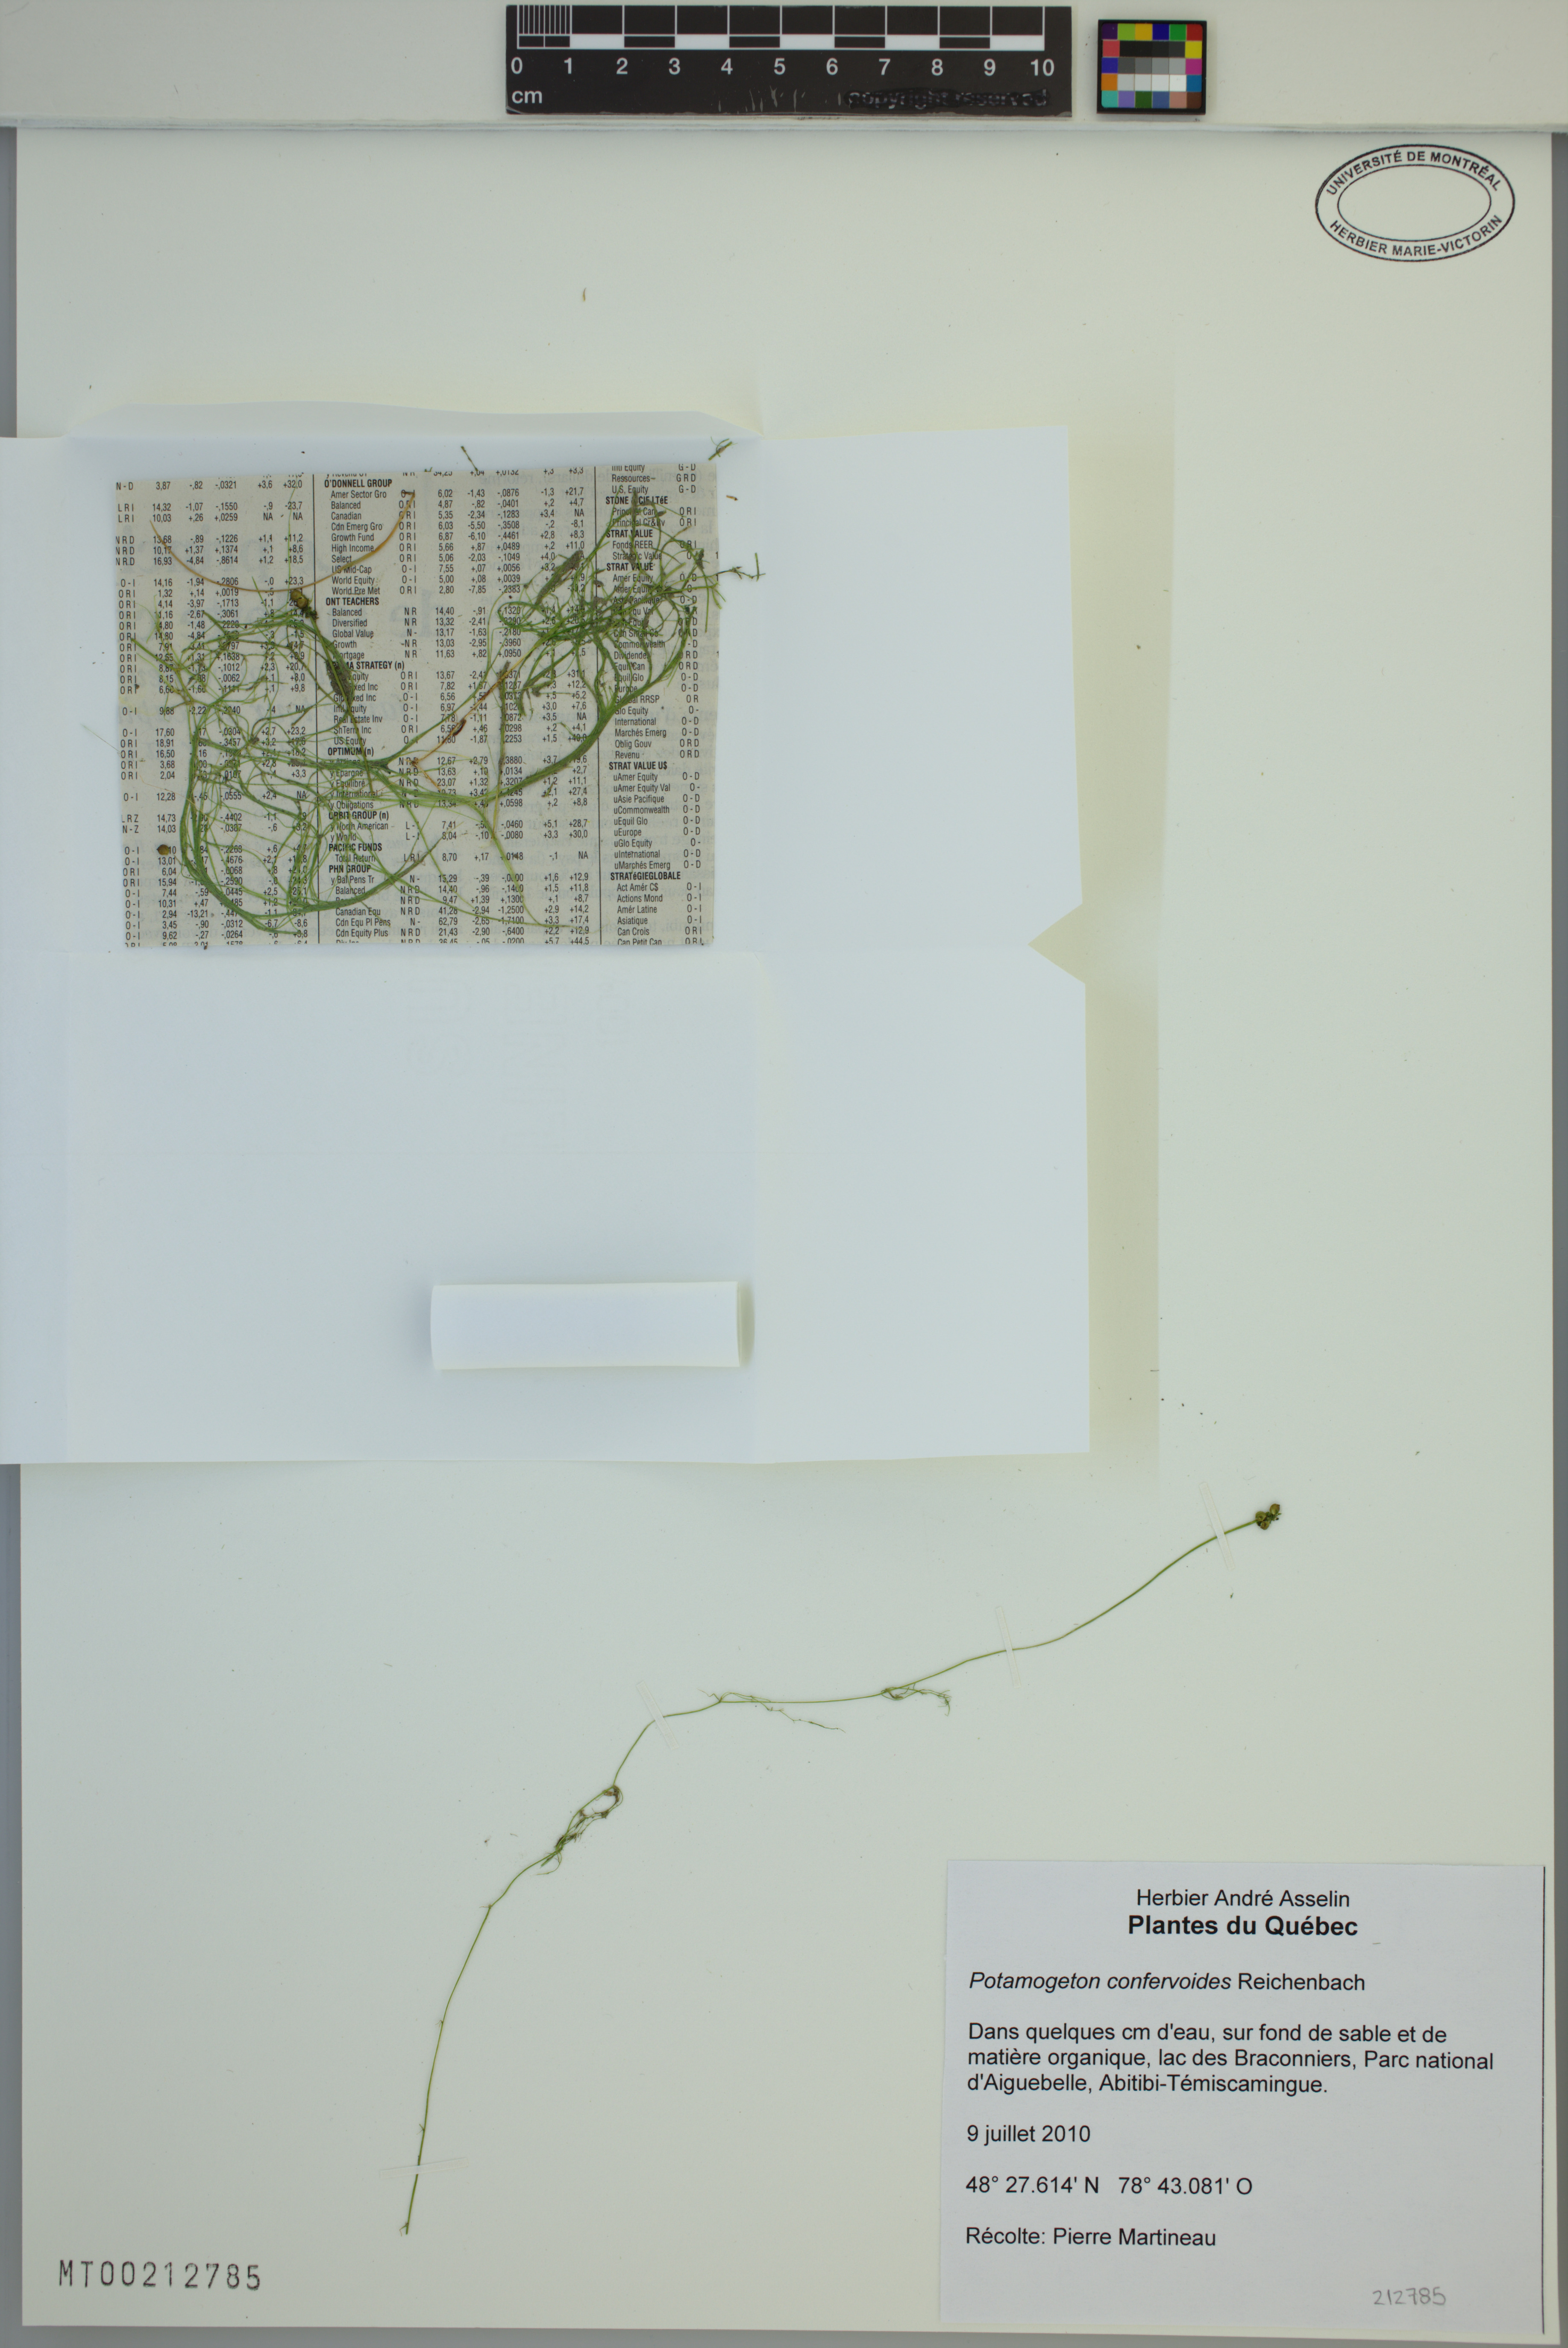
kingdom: Plantae
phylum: Tracheophyta
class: Liliopsida
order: Alismatales
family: Potamogetonaceae
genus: Potamogeton
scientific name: Potamogeton confervoides
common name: Alga pondweed
